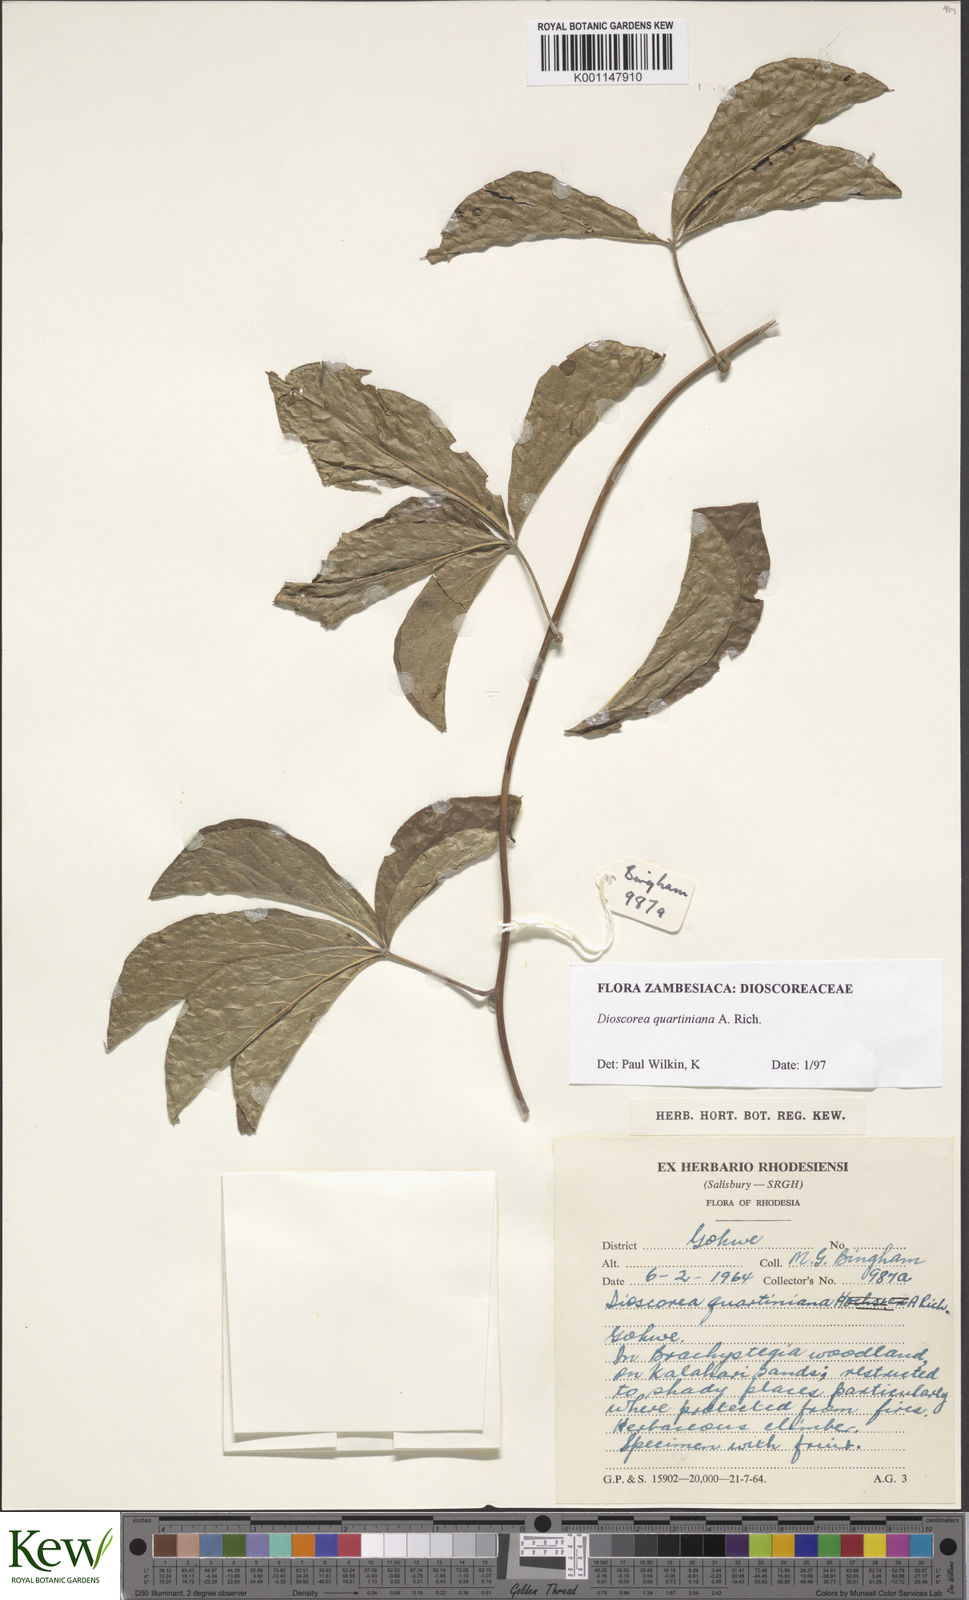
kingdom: Plantae
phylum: Tracheophyta
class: Liliopsida
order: Dioscoreales
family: Dioscoreaceae
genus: Dioscorea
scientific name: Dioscorea quartiniana
